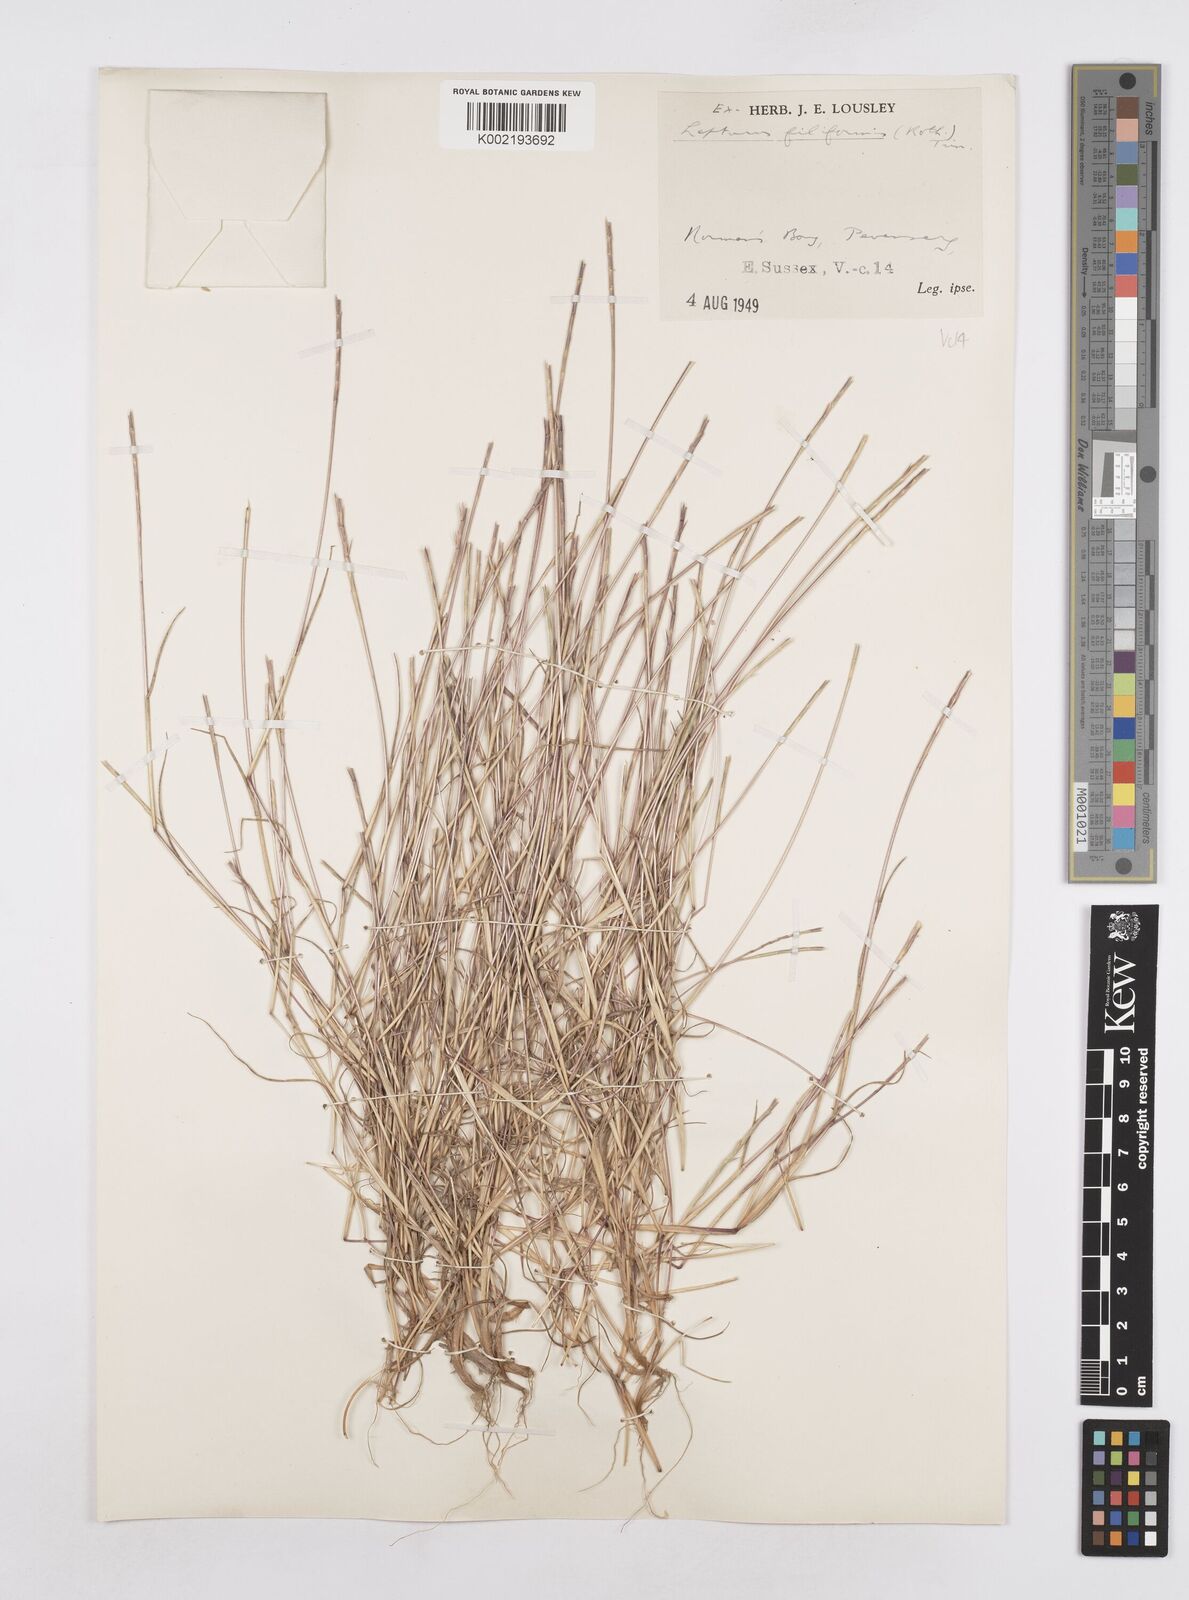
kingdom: Plantae
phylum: Tracheophyta
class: Liliopsida
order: Poales
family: Poaceae
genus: Parapholis
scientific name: Parapholis strigosa
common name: Hard-grass
